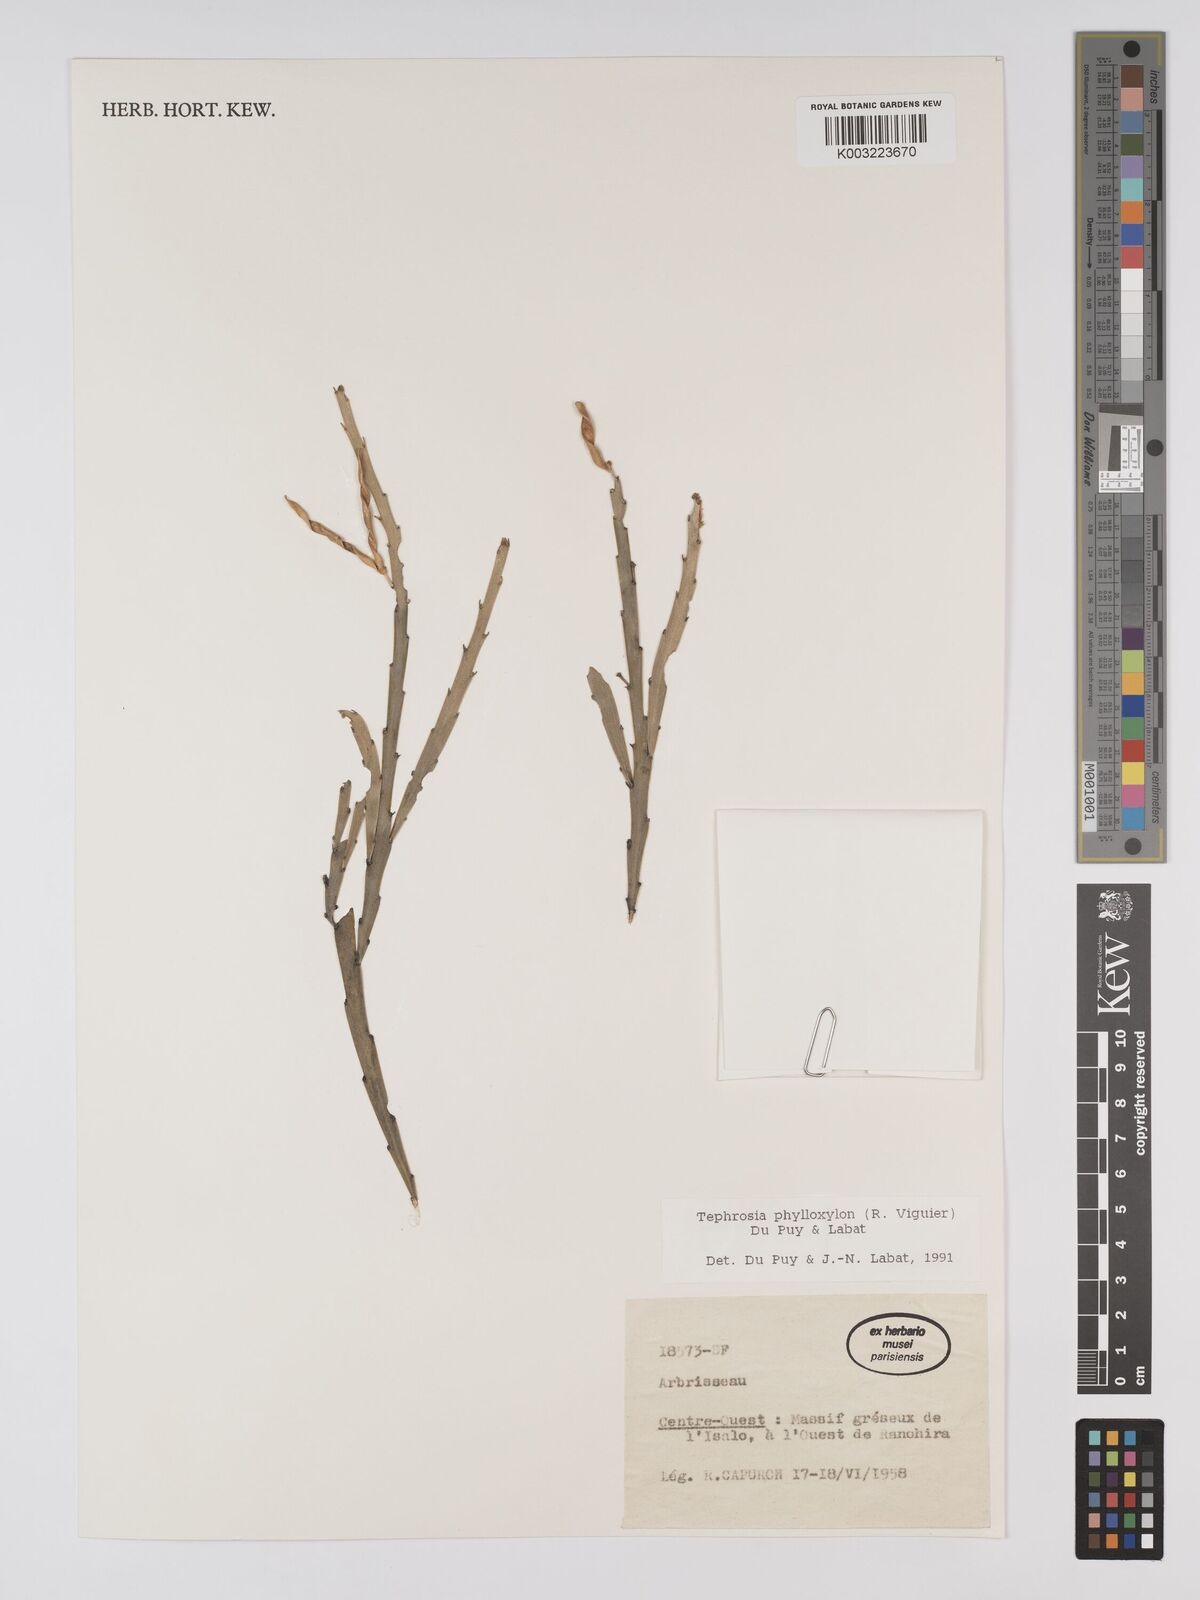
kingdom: Plantae
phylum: Tracheophyta
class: Magnoliopsida
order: Fabales
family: Fabaceae
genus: Tephrosia
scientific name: Tephrosia phylloxylon
